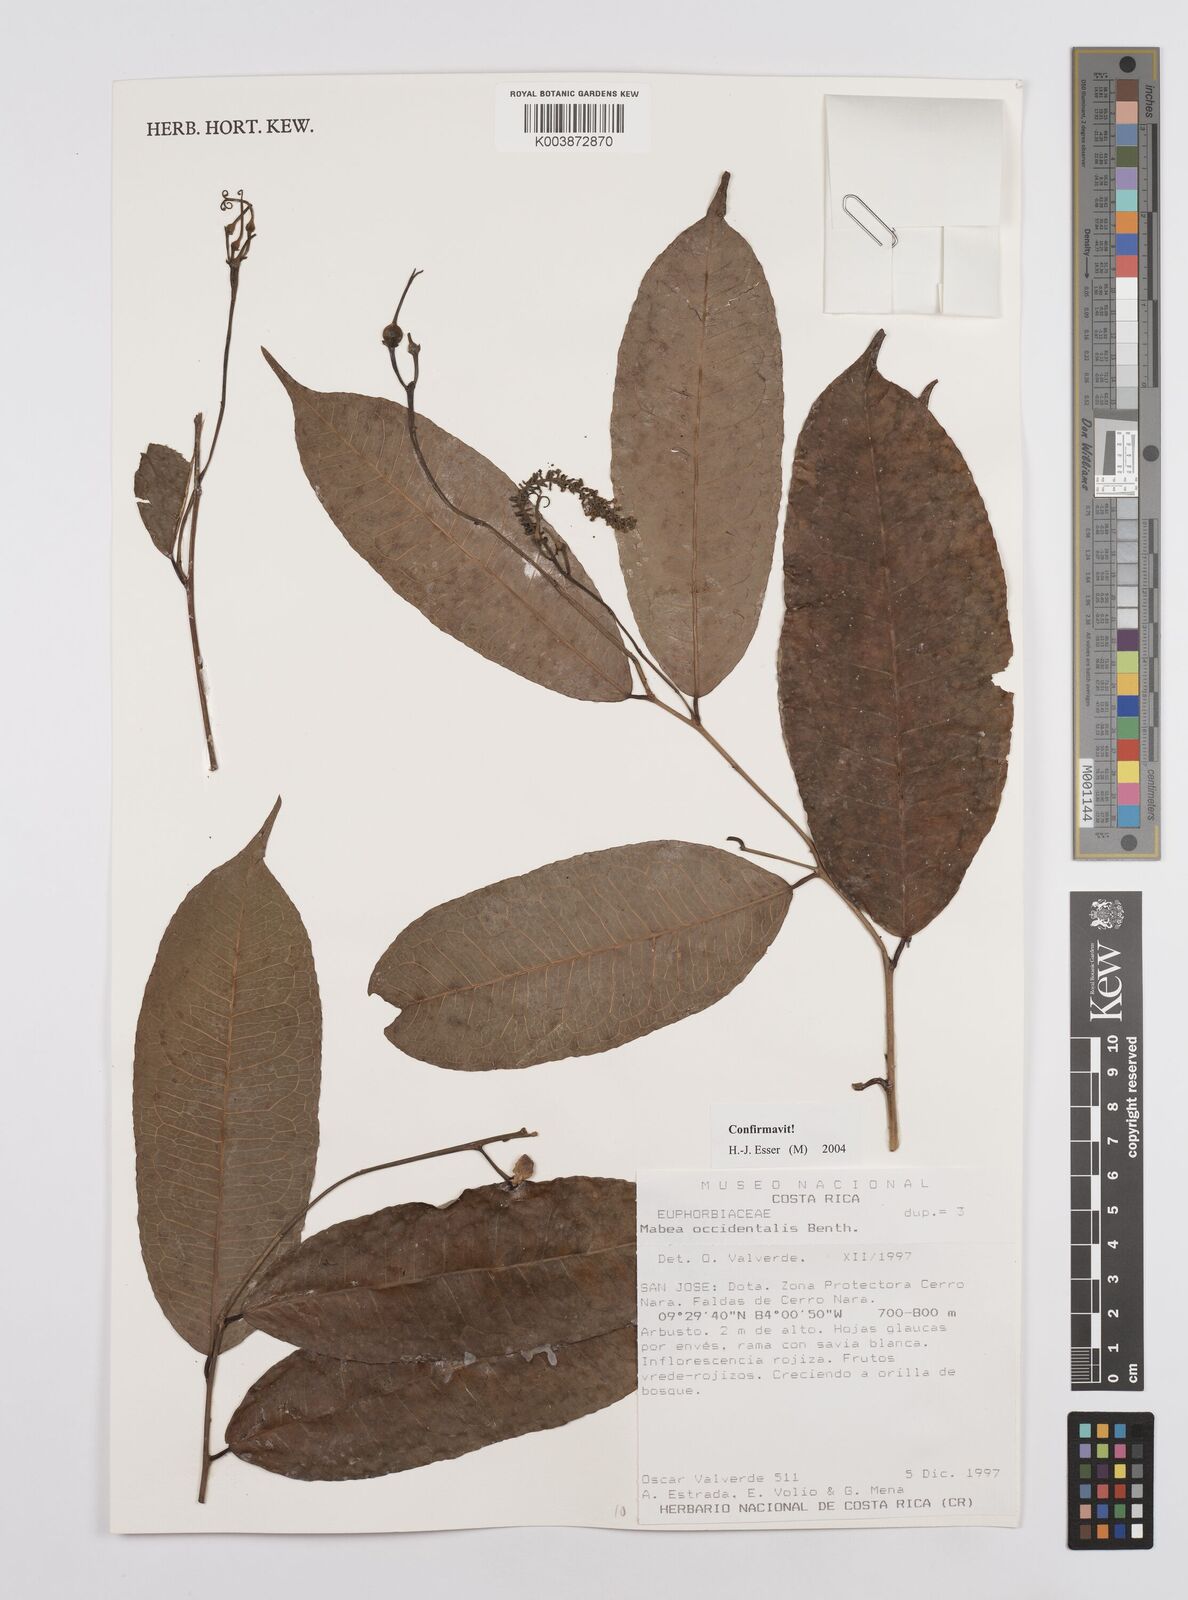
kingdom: Plantae
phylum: Tracheophyta
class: Magnoliopsida
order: Malpighiales
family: Euphorbiaceae
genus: Mabea
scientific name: Mabea occidentalis
